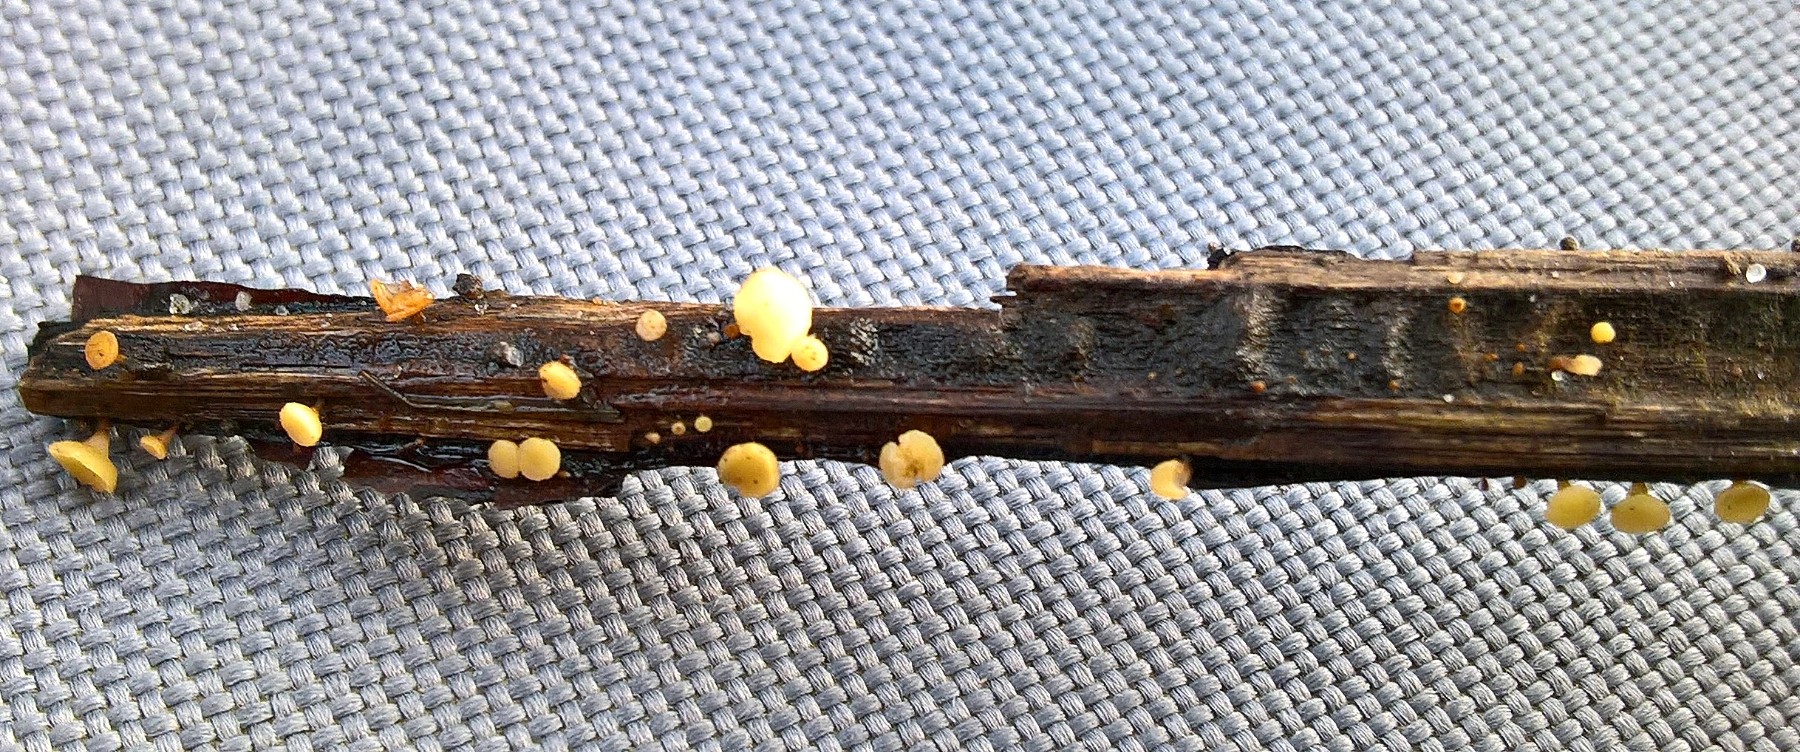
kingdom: Fungi
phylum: Ascomycota
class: Leotiomycetes
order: Helotiales
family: Helotiaceae
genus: Hymenoscyphus
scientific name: Hymenoscyphus
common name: stilkskive
